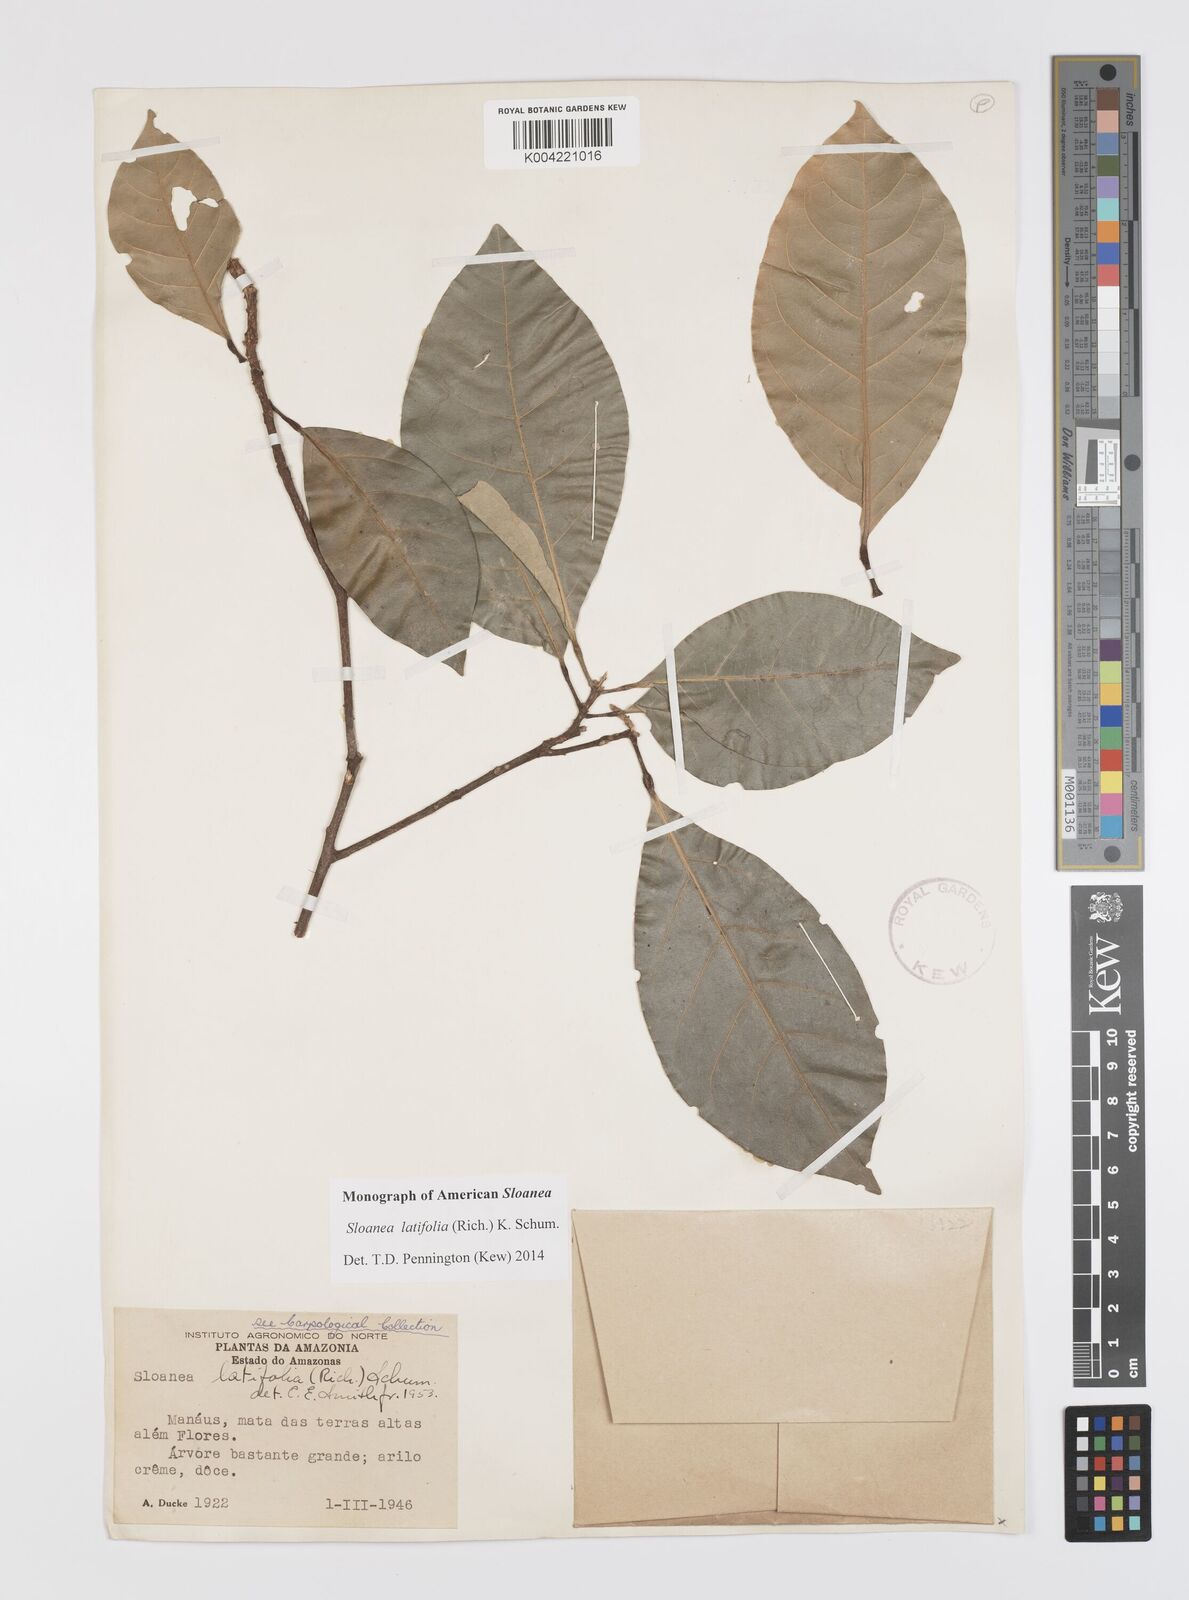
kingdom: Plantae
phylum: Tracheophyta
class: Magnoliopsida
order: Oxalidales
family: Elaeocarpaceae
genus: Sloanea
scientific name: Sloanea latifolia
